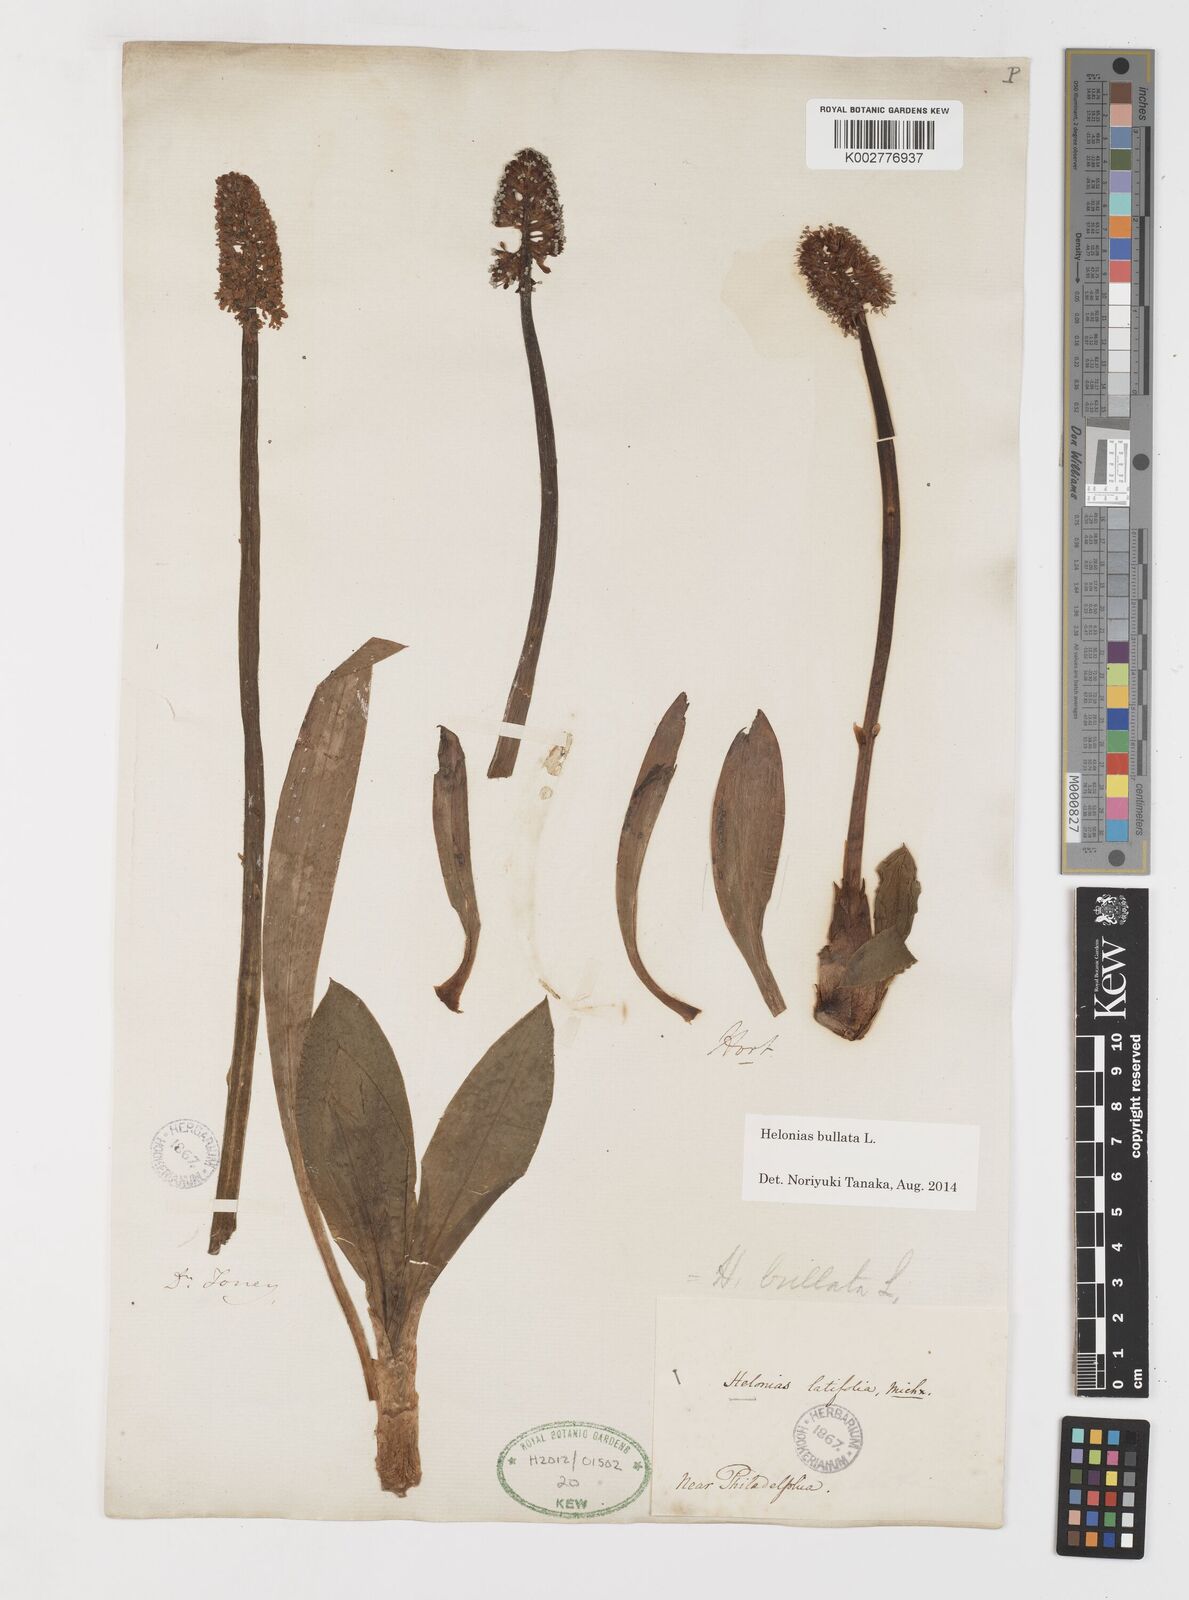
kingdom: Plantae
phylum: Tracheophyta
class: Liliopsida
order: Liliales
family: Melanthiaceae
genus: Helonias
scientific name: Helonias bullata
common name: Swamp-pink
